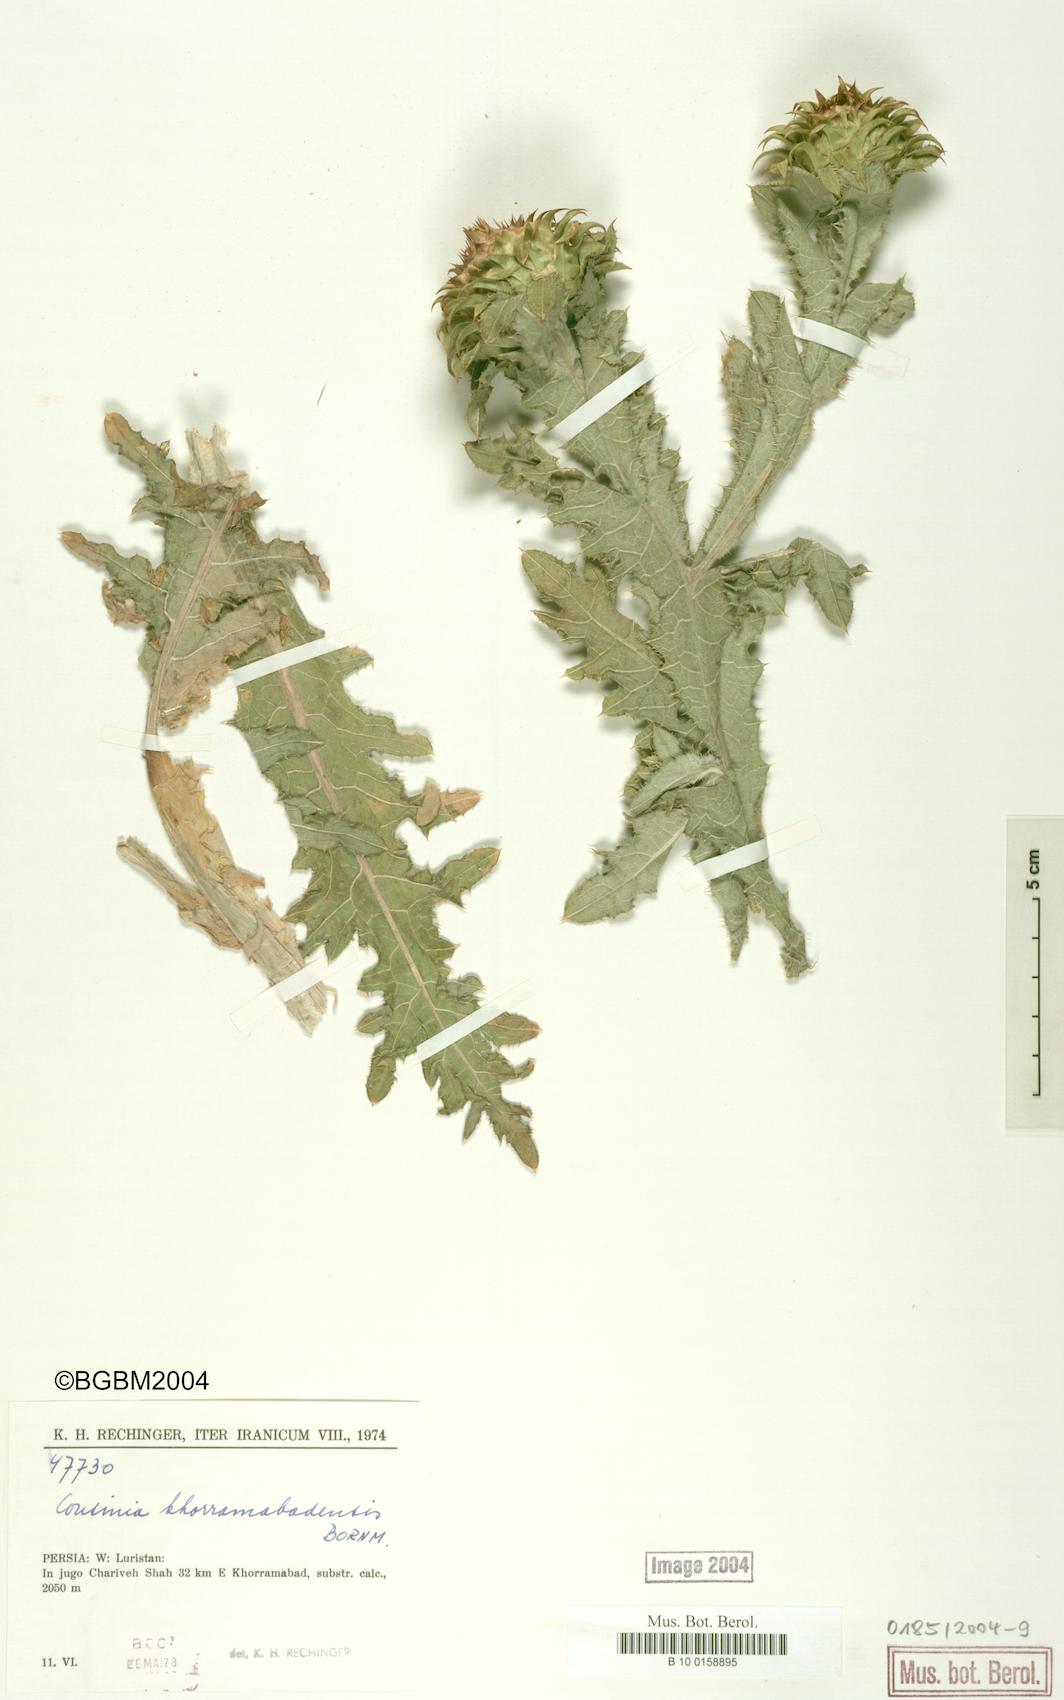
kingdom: Plantae
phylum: Tracheophyta
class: Magnoliopsida
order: Asterales
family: Asteraceae
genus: Cousinia
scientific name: Cousinia khorramabadensis
